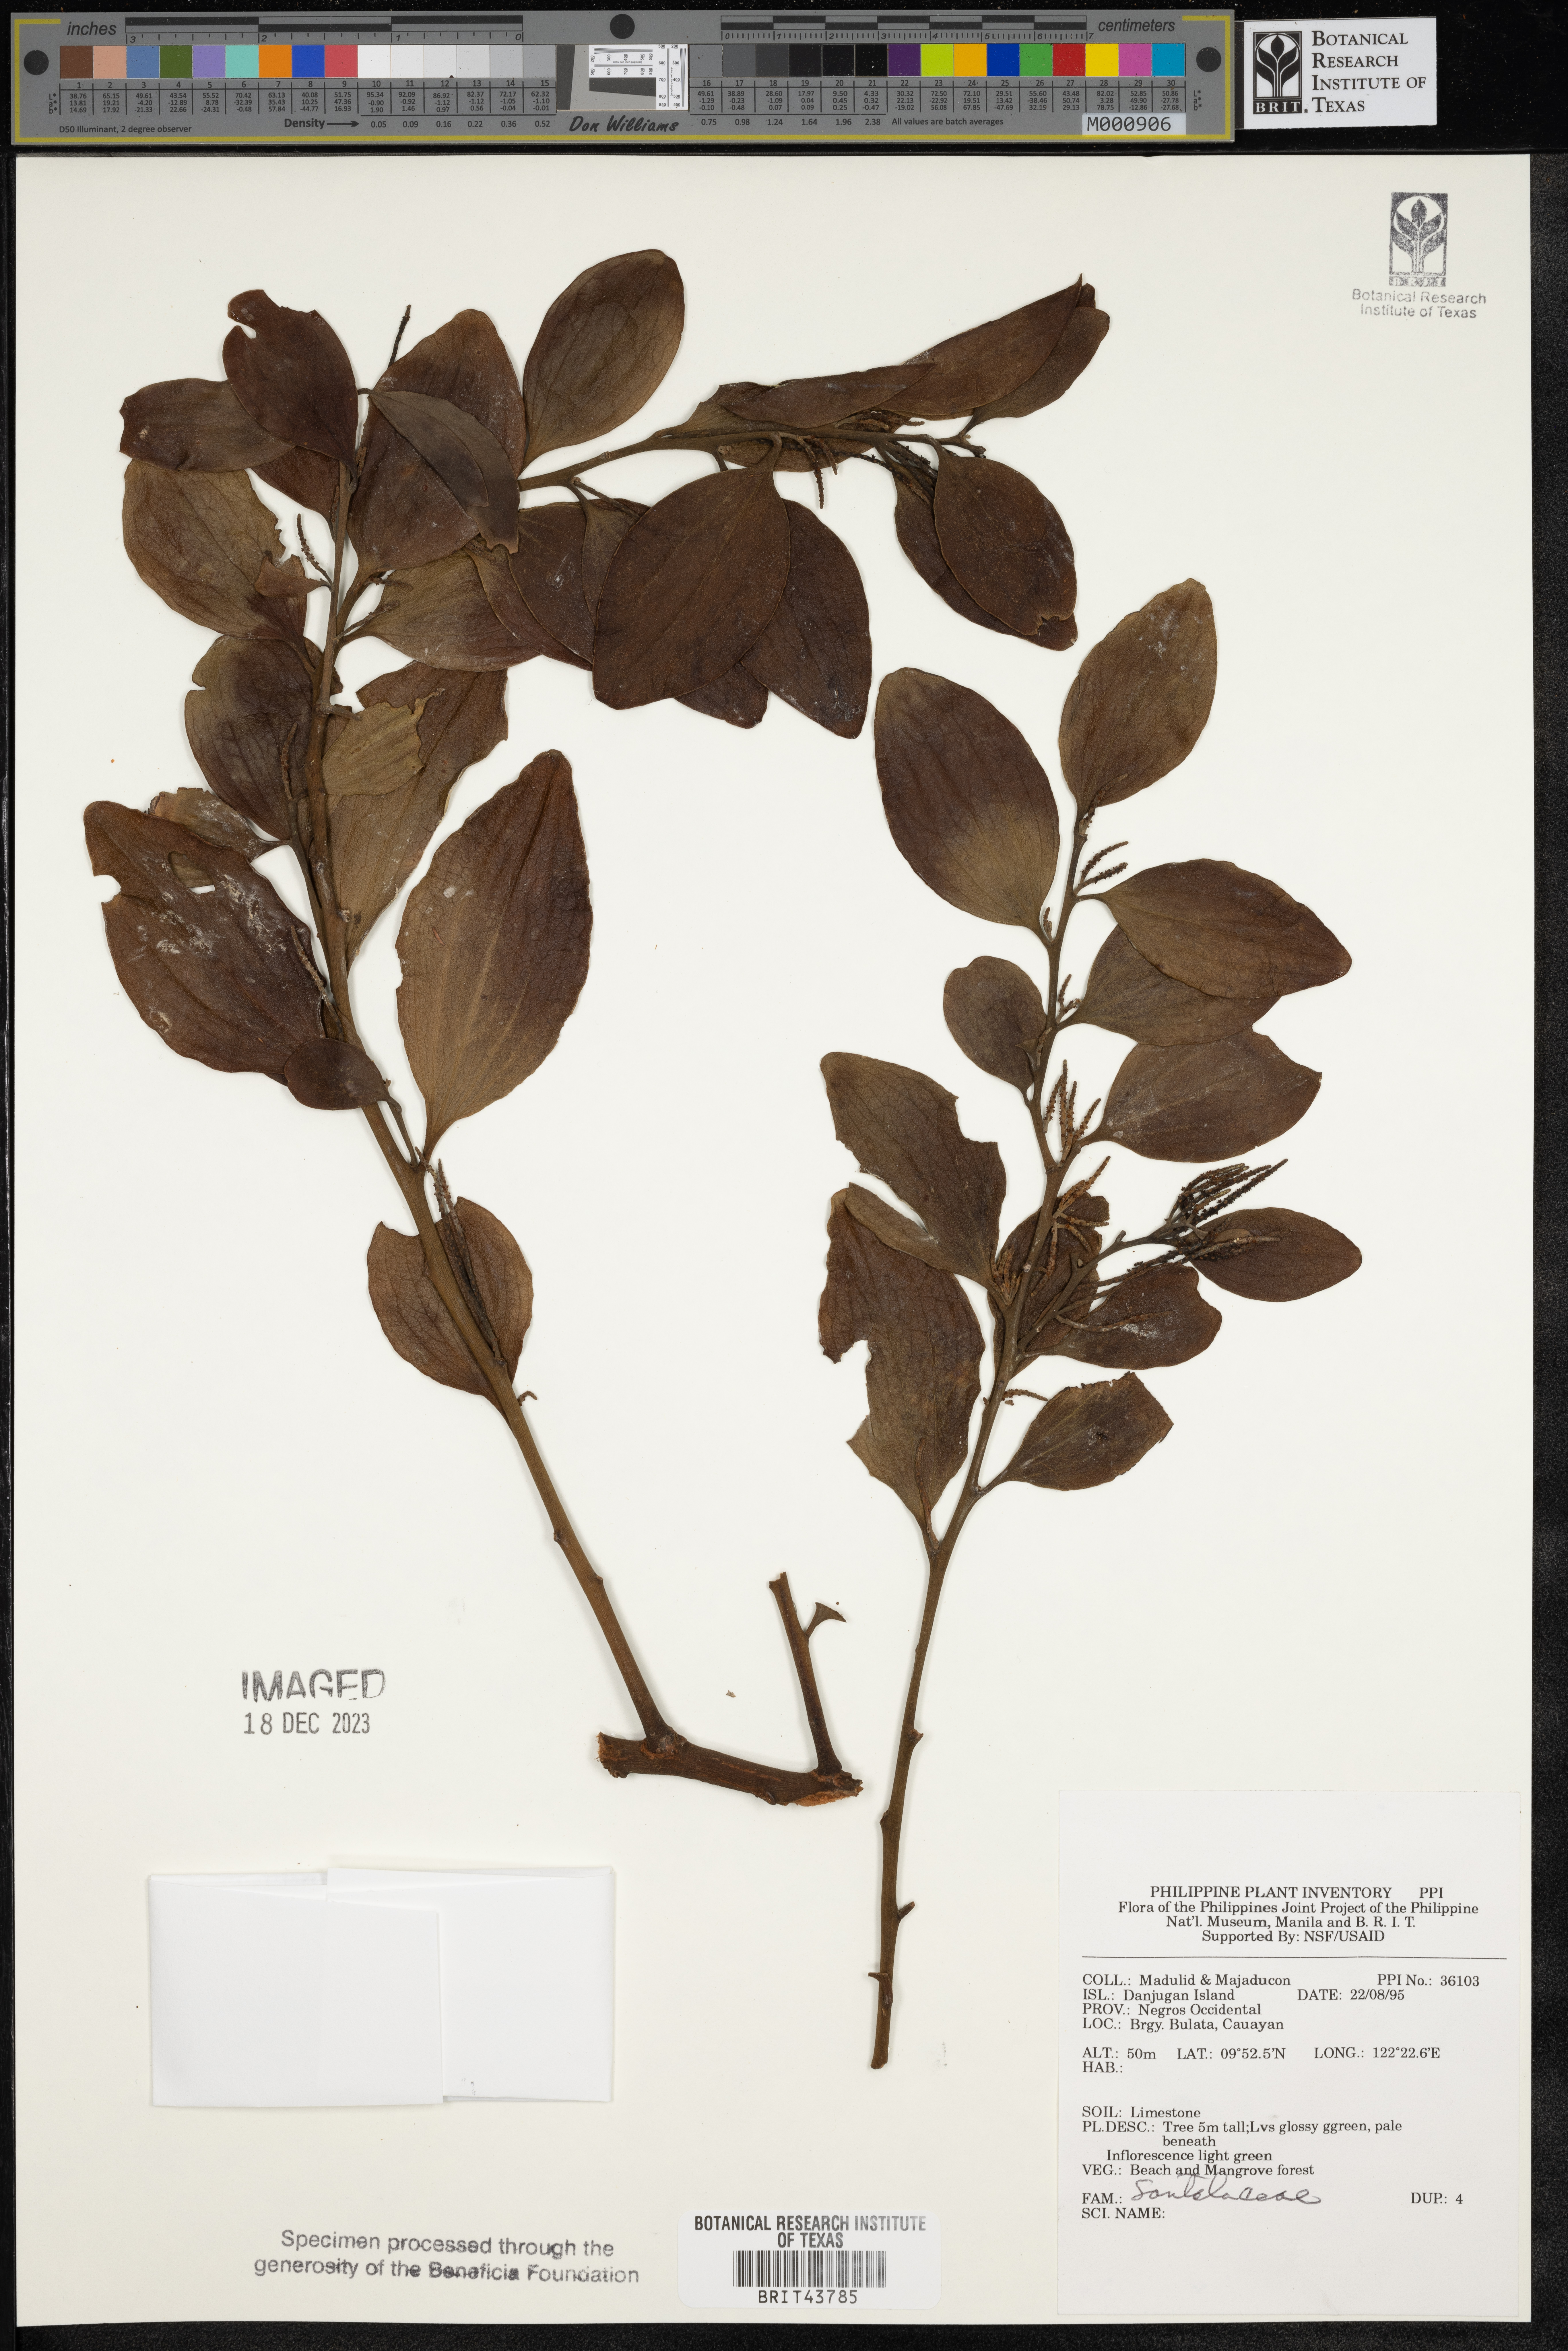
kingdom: Plantae
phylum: Tracheophyta
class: Magnoliopsida
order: Santalales
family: Santalaceae
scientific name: Santalaceae
